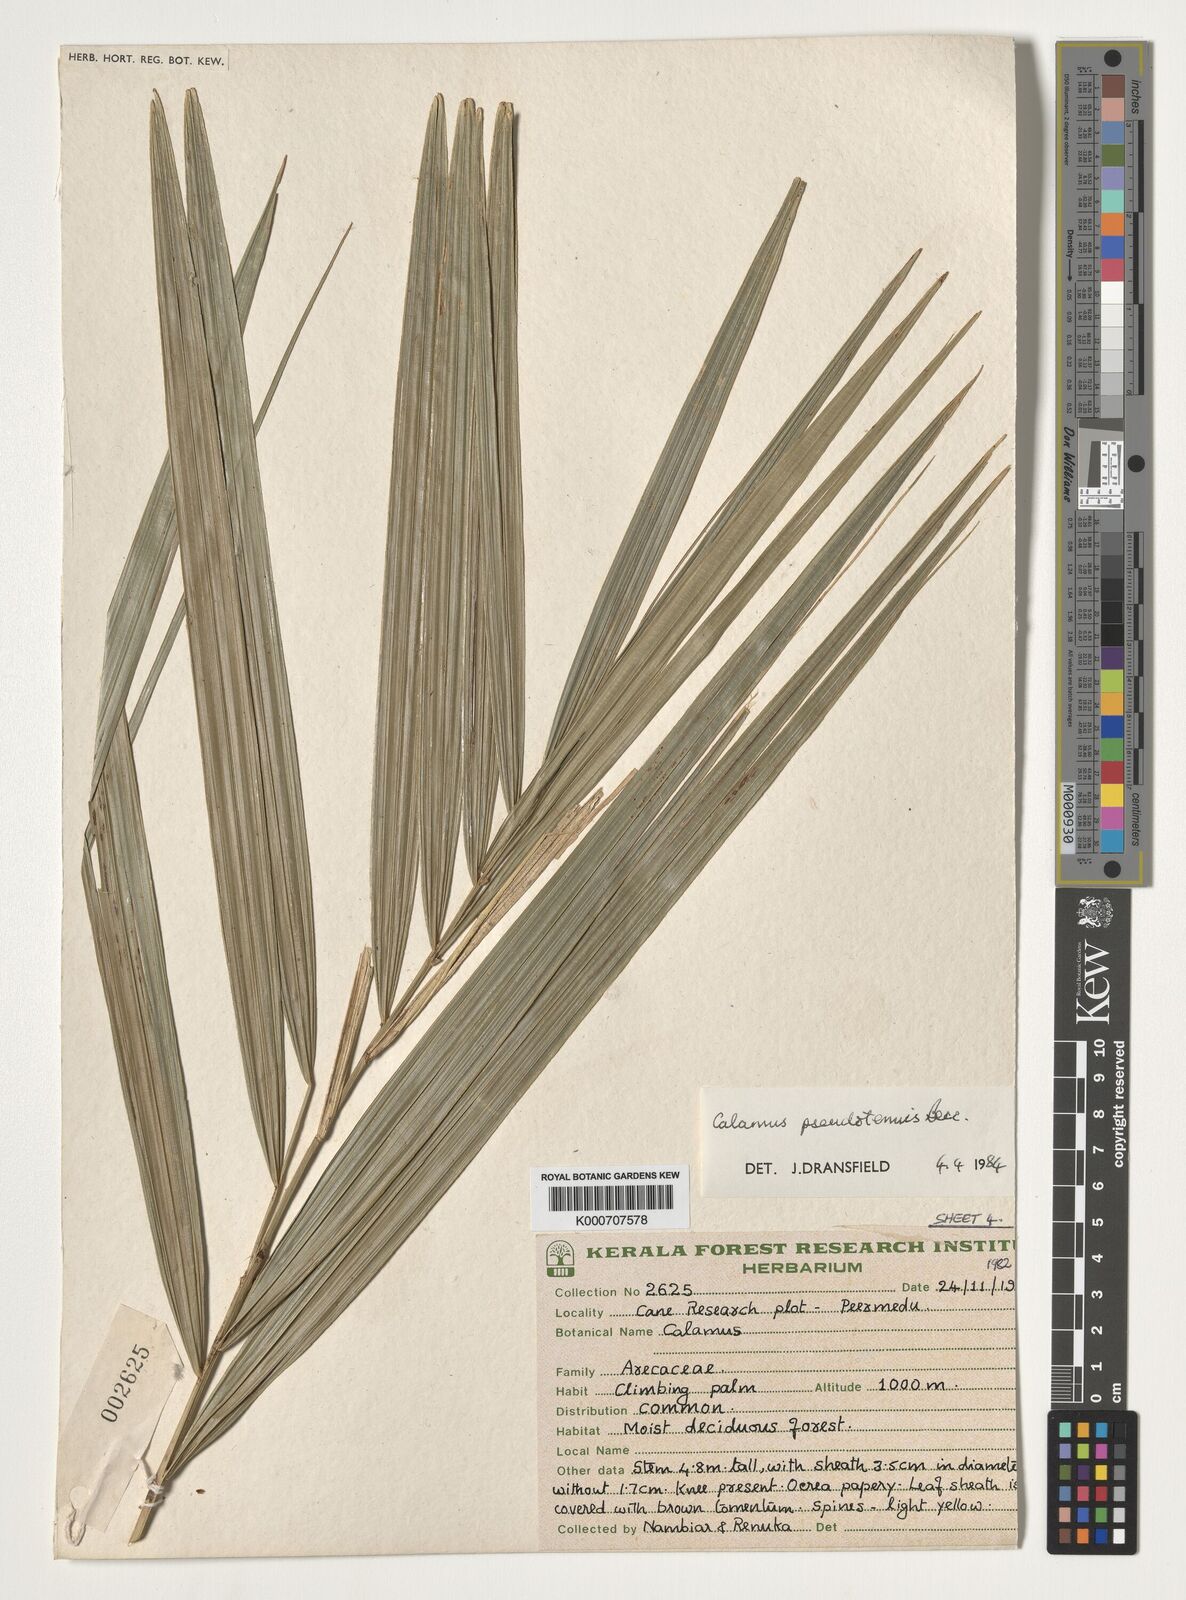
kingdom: Plantae
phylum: Tracheophyta
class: Liliopsida
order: Arecales
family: Arecaceae
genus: Calamus
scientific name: Calamus pseudotenuis
